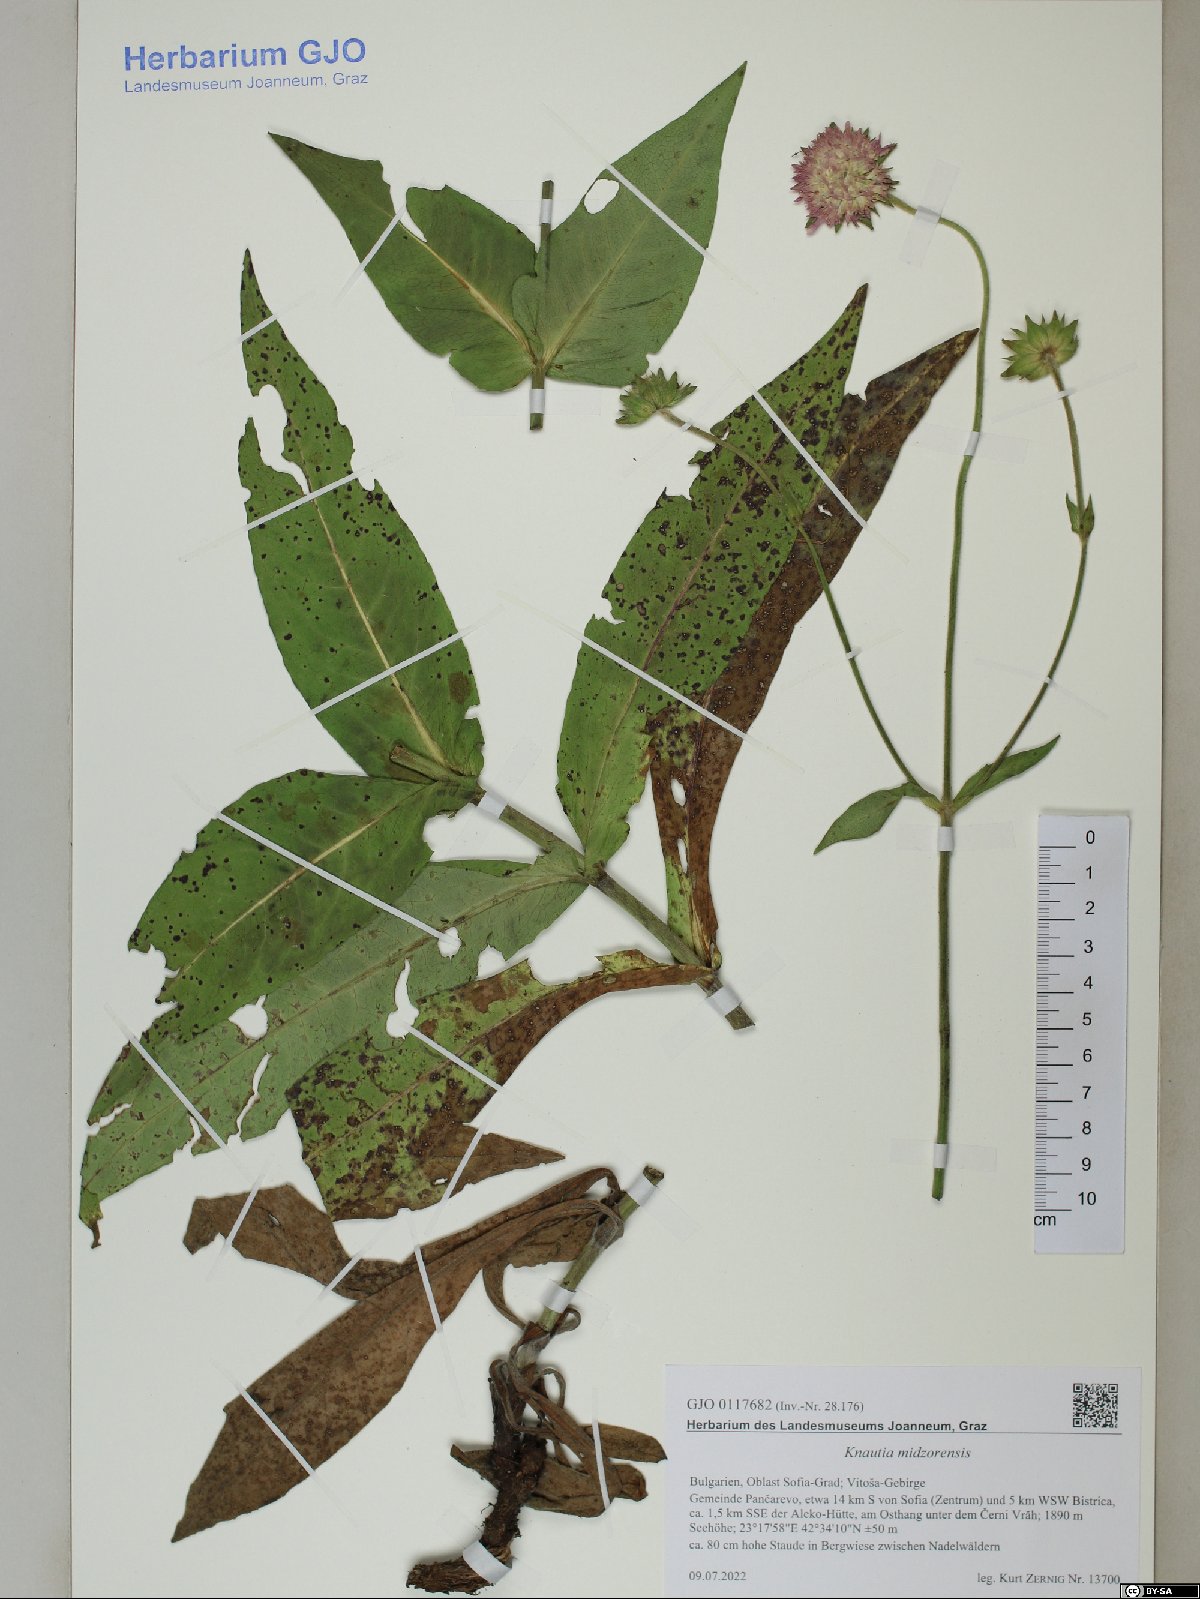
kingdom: Plantae
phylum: Tracheophyta
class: Magnoliopsida
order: Dipsacales
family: Caprifoliaceae
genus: Knautia
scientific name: Knautia midzorensis
